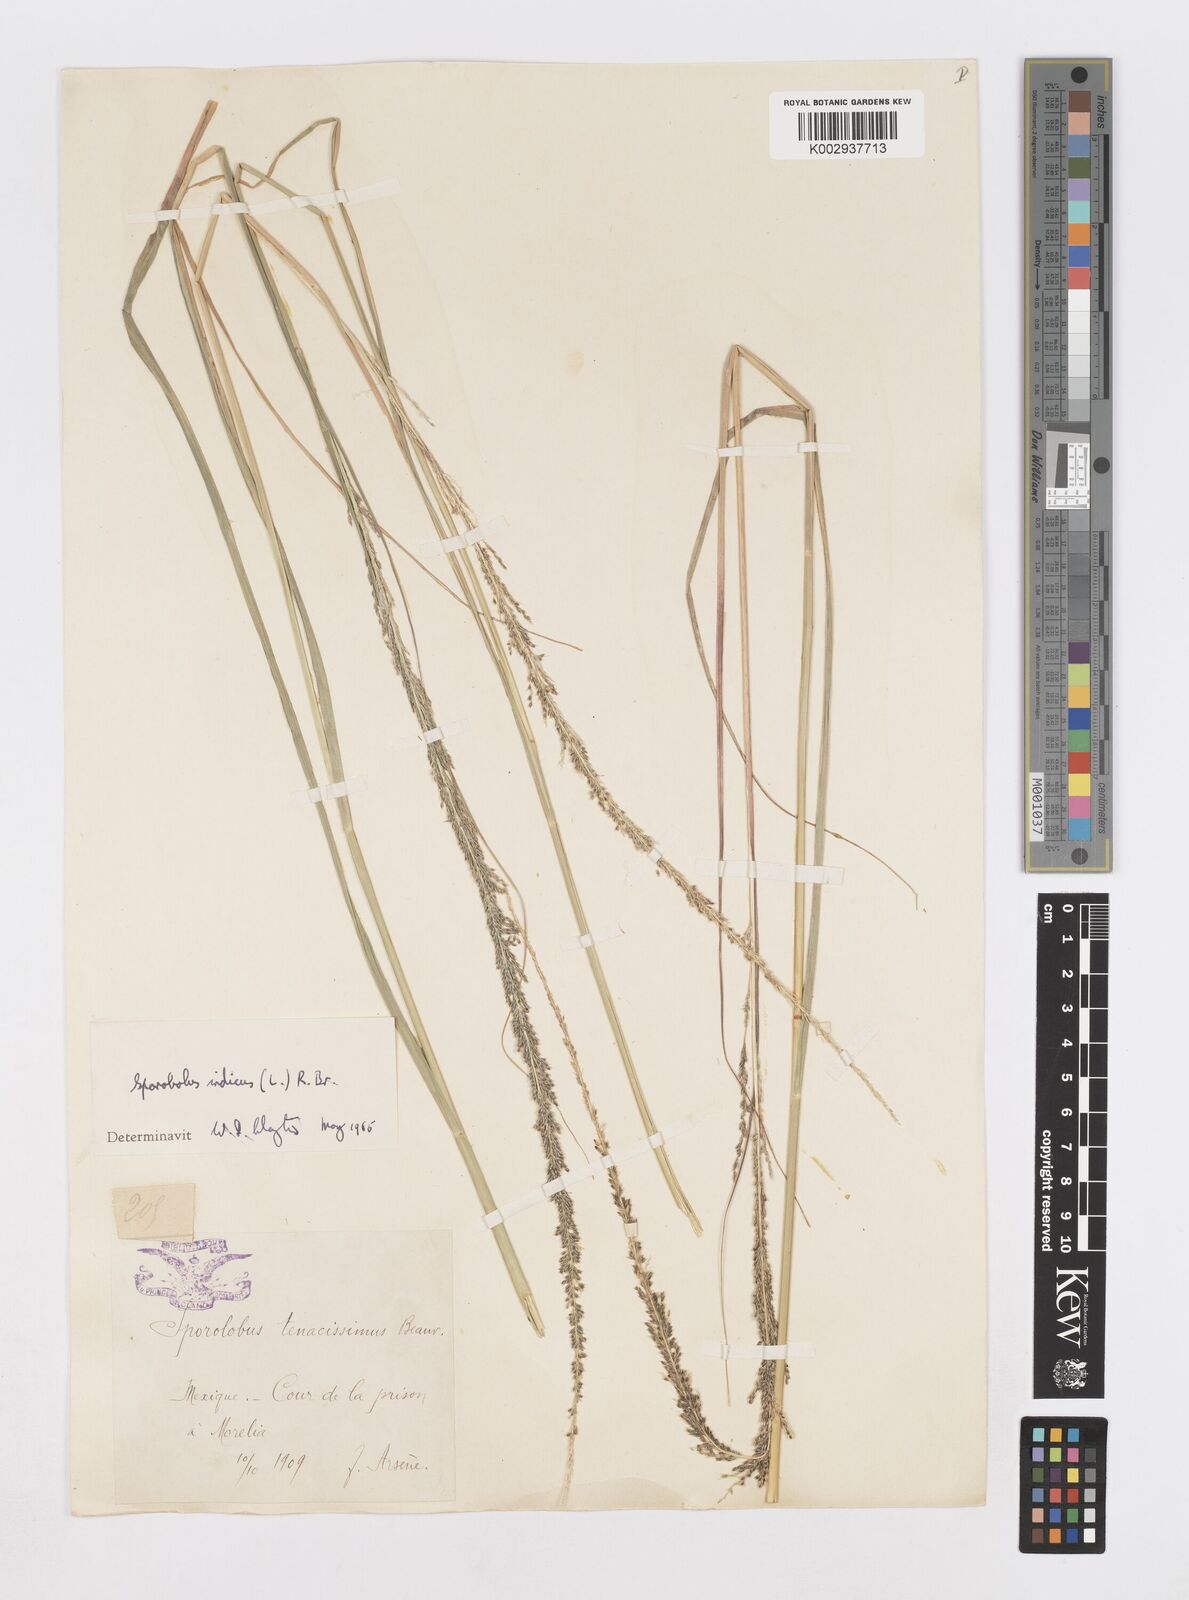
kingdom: Plantae
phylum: Tracheophyta
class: Liliopsida
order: Poales
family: Poaceae
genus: Sporobolus
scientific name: Sporobolus junceus
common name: Lizard grass
